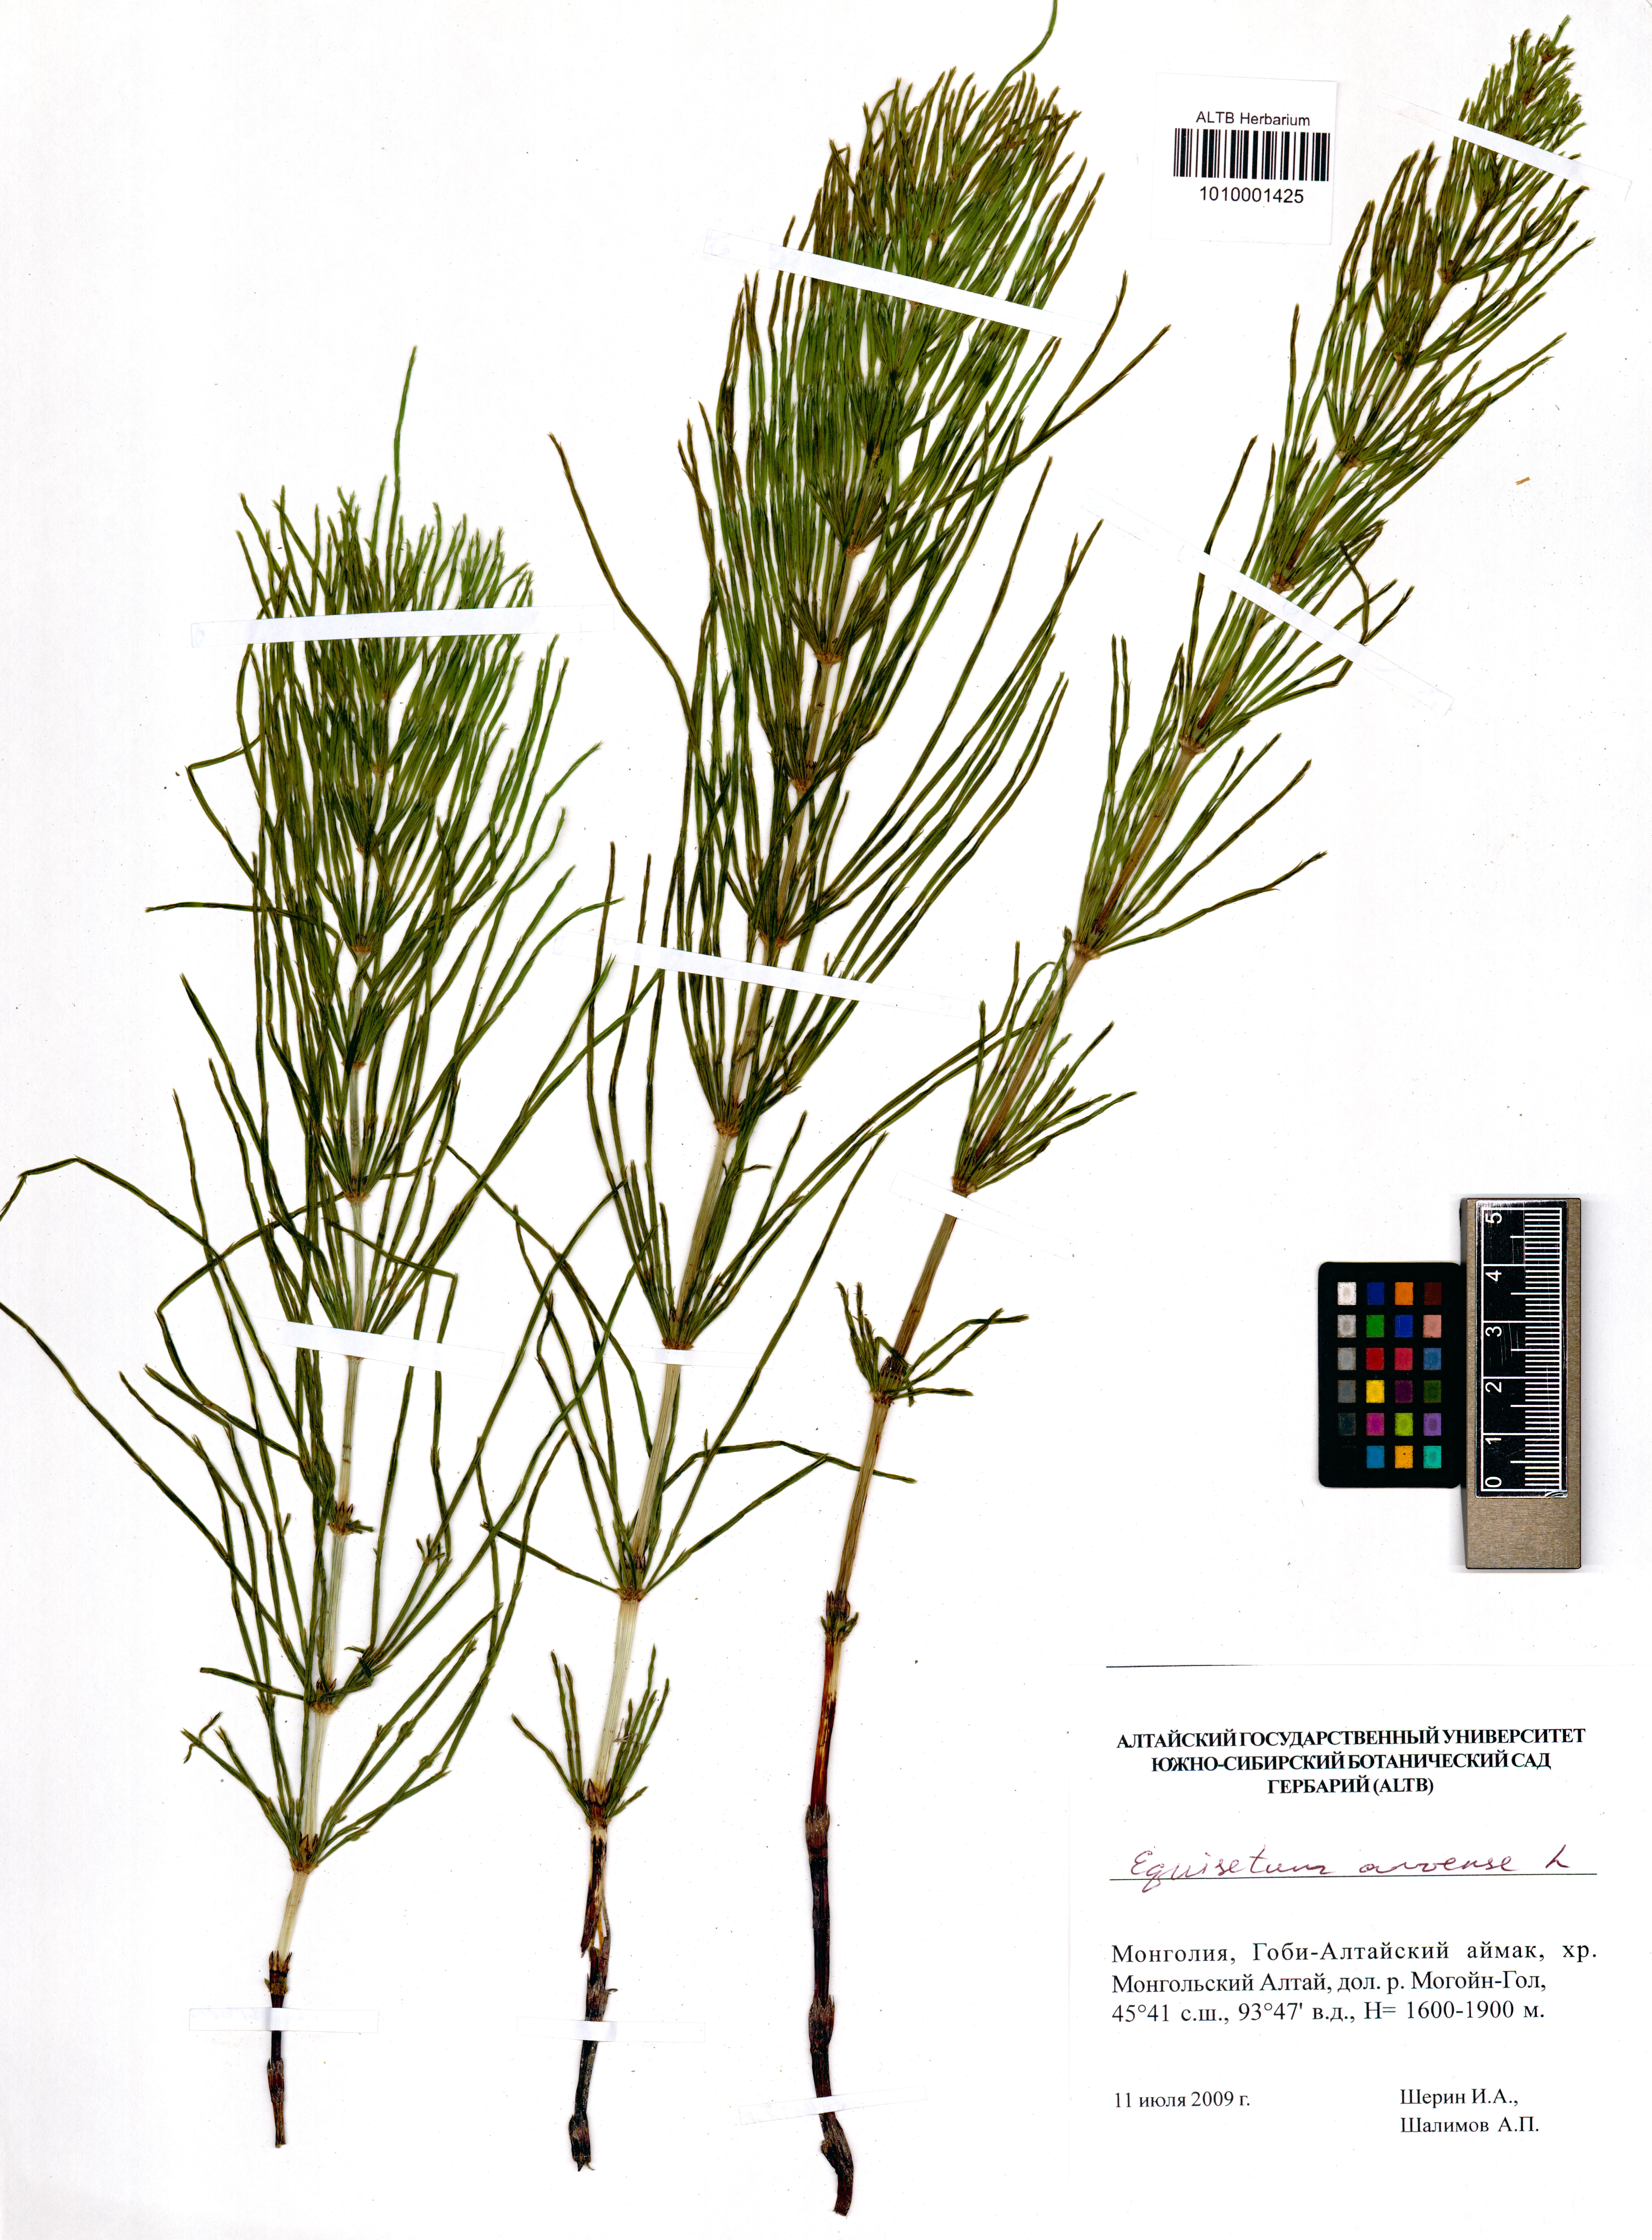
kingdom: Plantae
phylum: Tracheophyta
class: Polypodiopsida
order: Equisetales
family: Equisetaceae
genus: Equisetum
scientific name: Equisetum arvense
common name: Field horsetail
